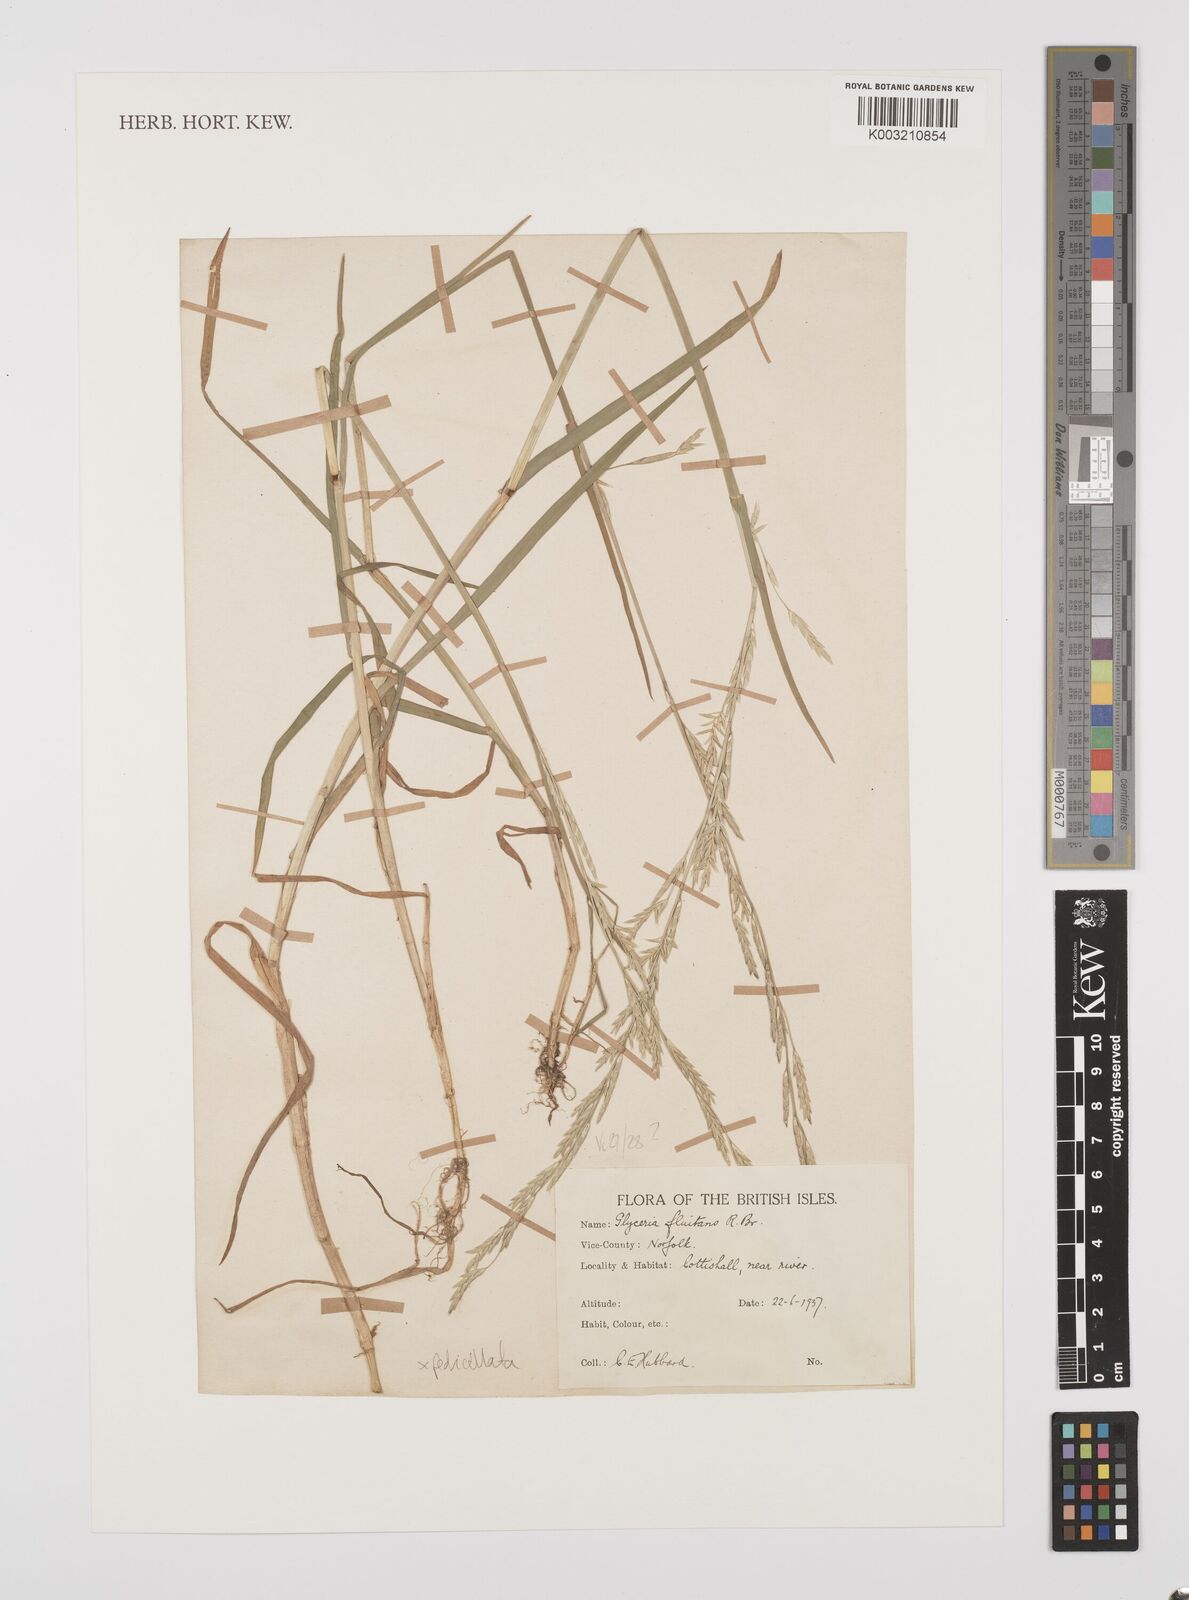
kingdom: Plantae
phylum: Tracheophyta
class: Liliopsida
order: Poales
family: Poaceae
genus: Glyceria
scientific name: Glyceria fluitans
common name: Floating sweet-grass
